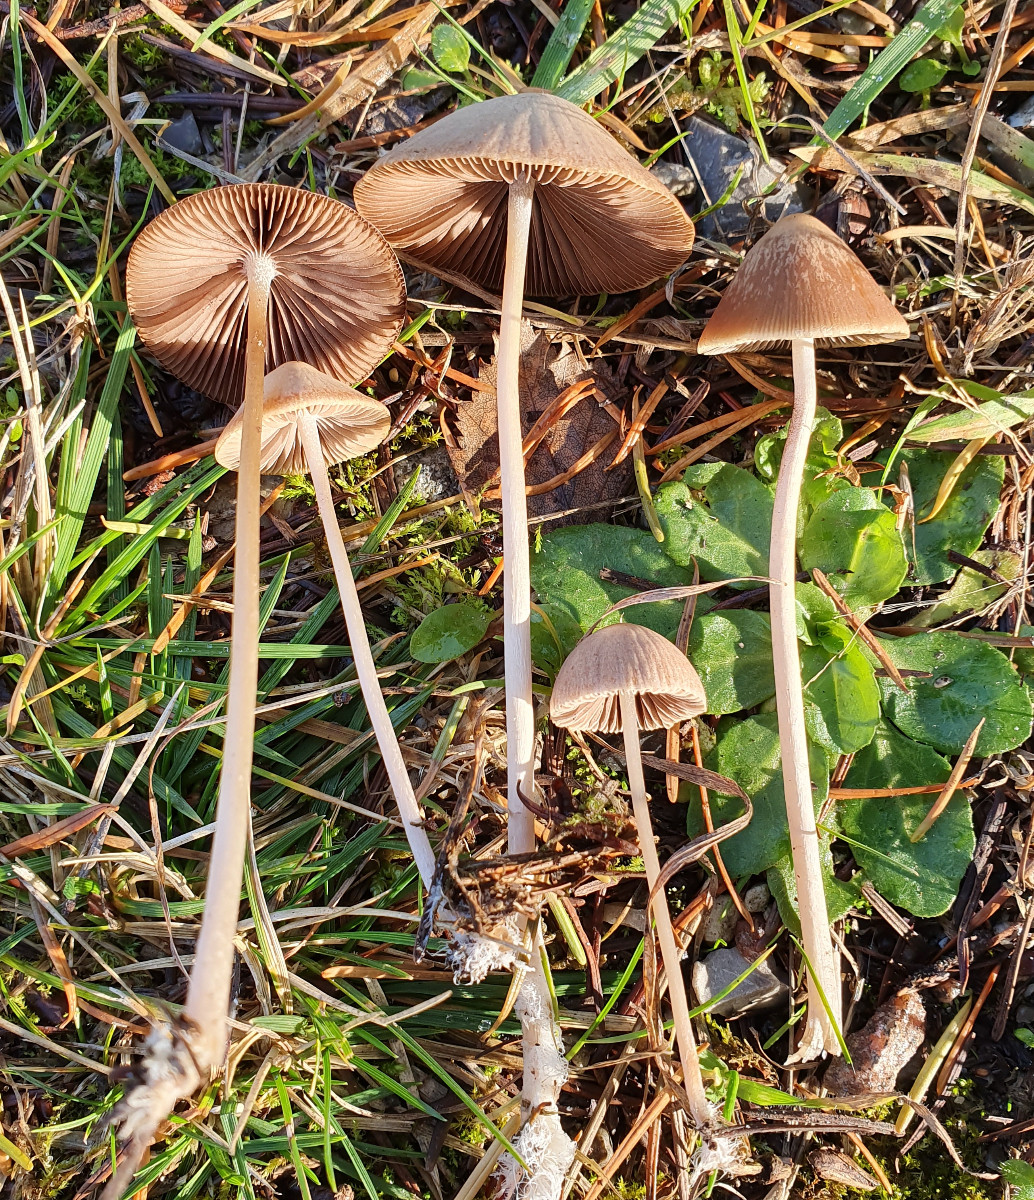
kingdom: Fungi
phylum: Basidiomycota
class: Agaricomycetes
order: Agaricales
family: Psathyrellaceae
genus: Psathyrella
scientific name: Psathyrella
